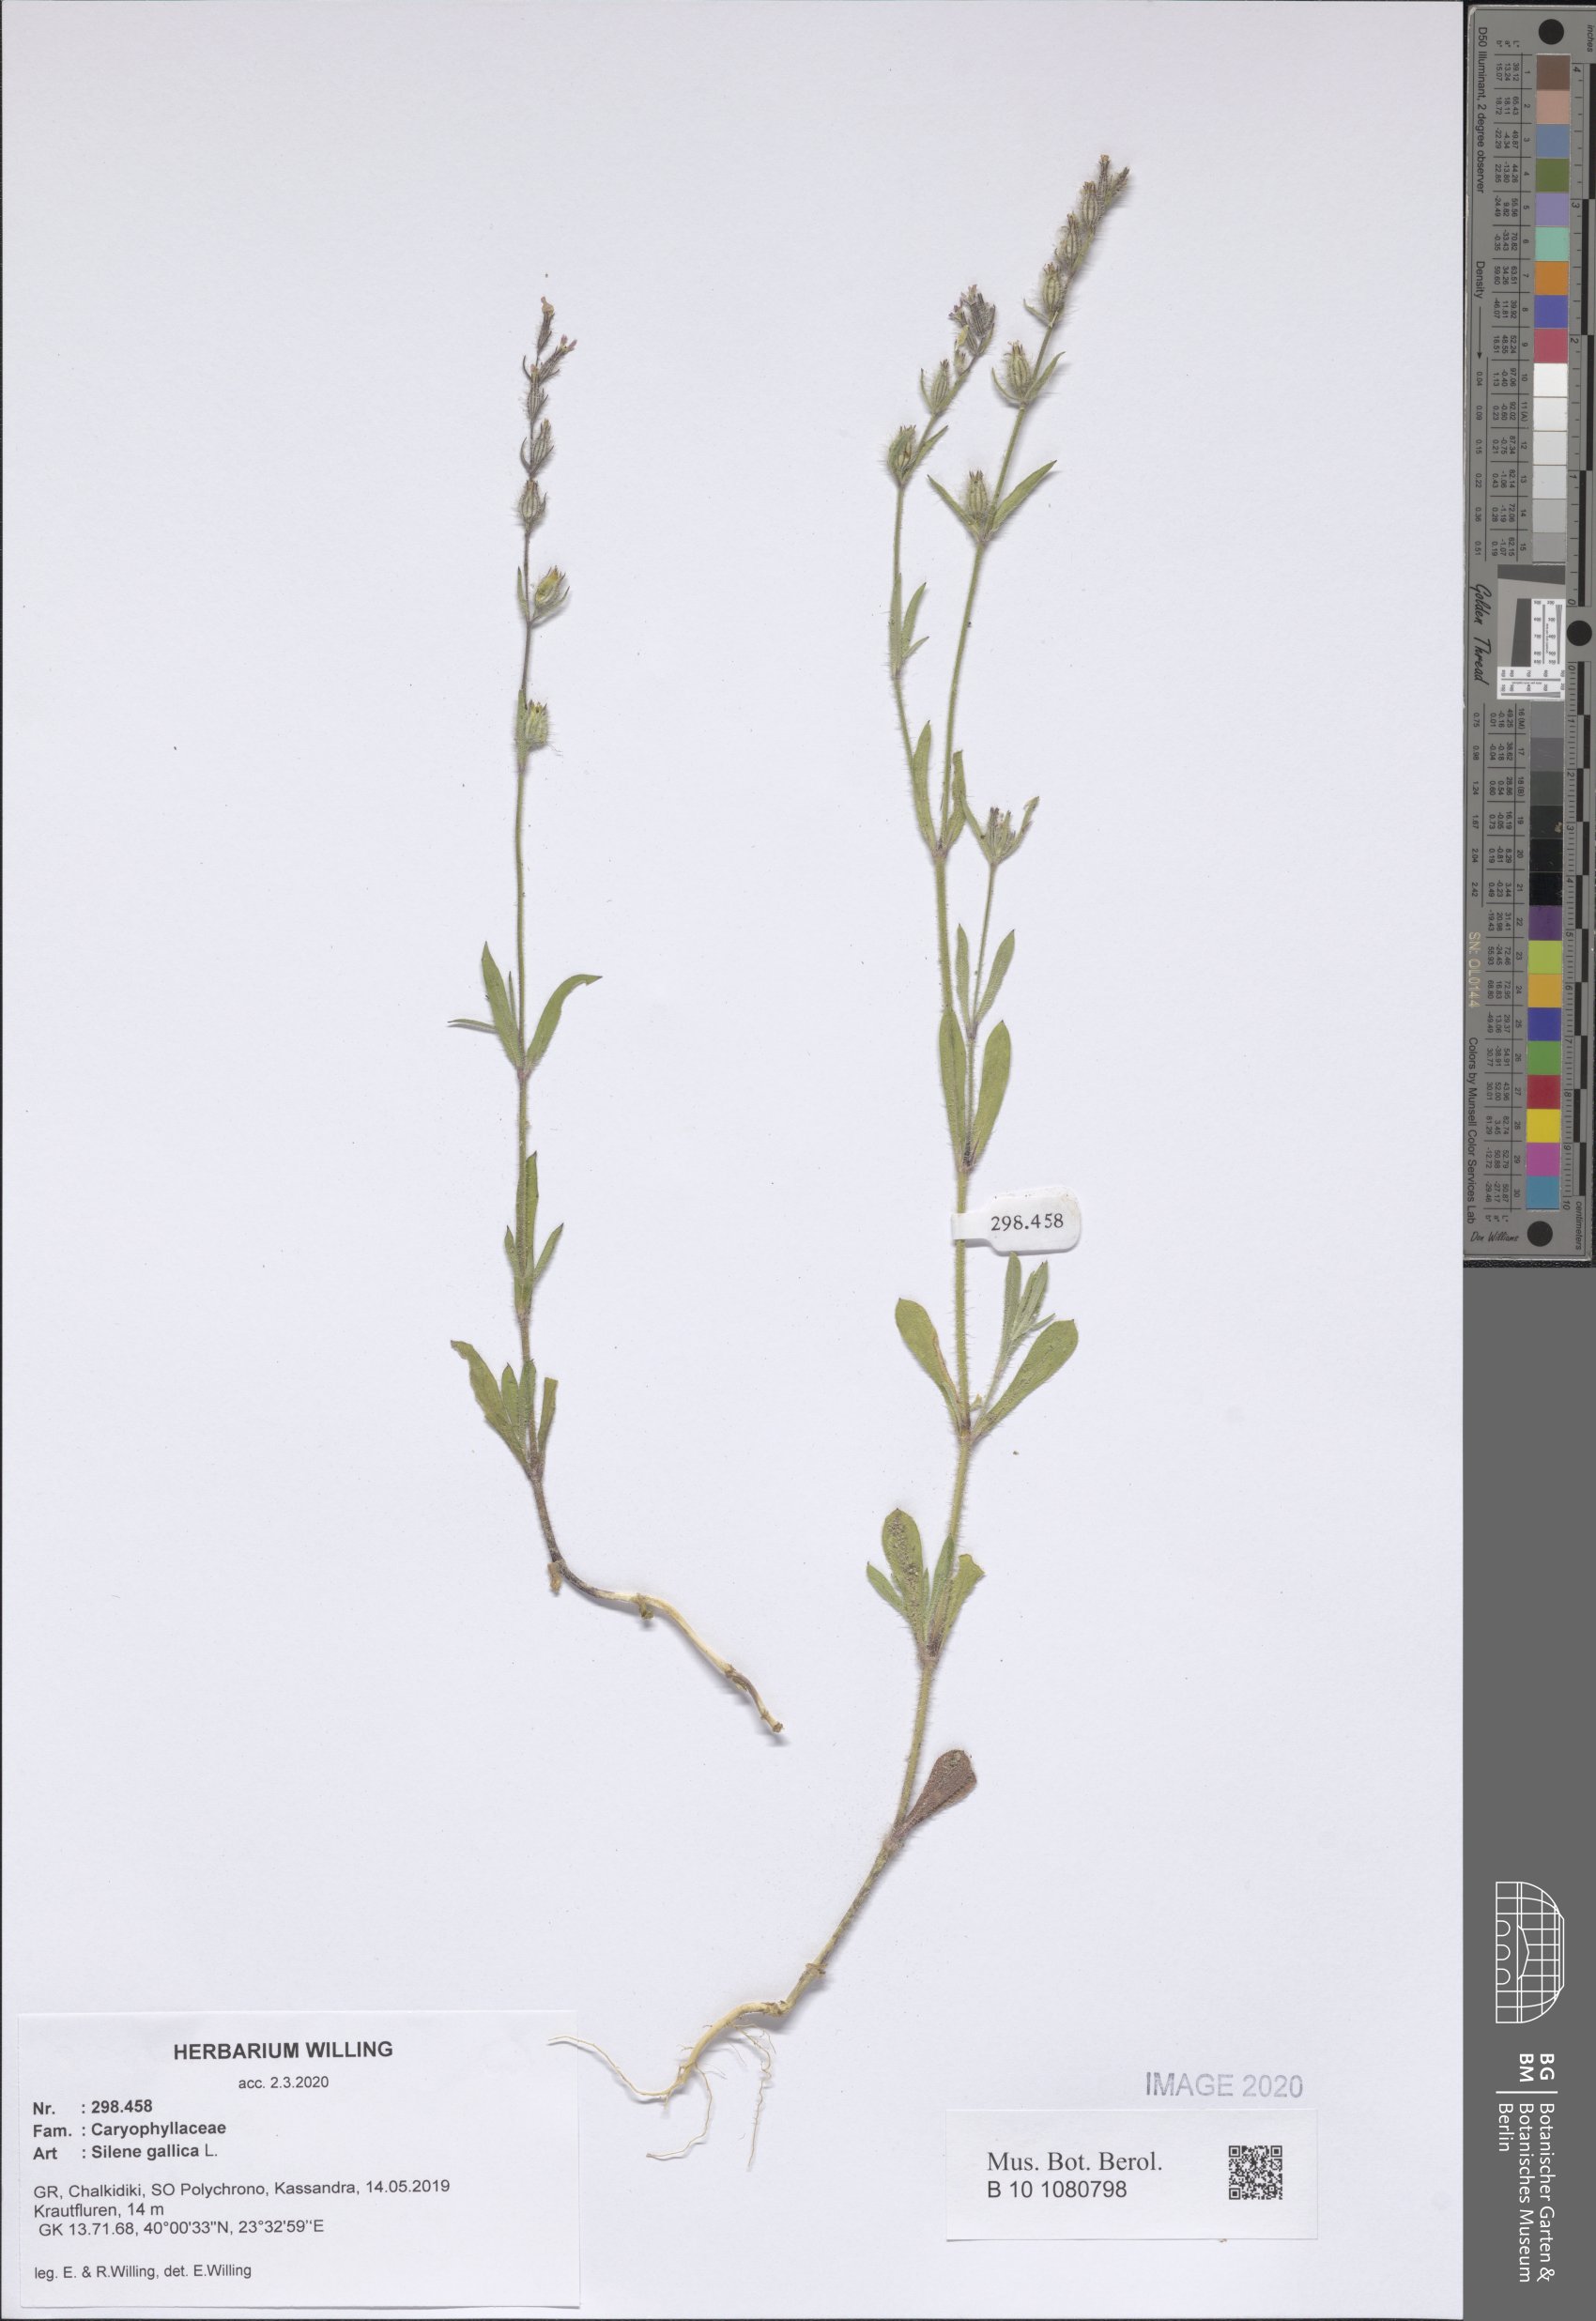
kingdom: Plantae
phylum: Tracheophyta
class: Magnoliopsida
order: Caryophyllales
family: Caryophyllaceae
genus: Silene
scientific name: Silene gallica
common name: Small-flowered catchfly
